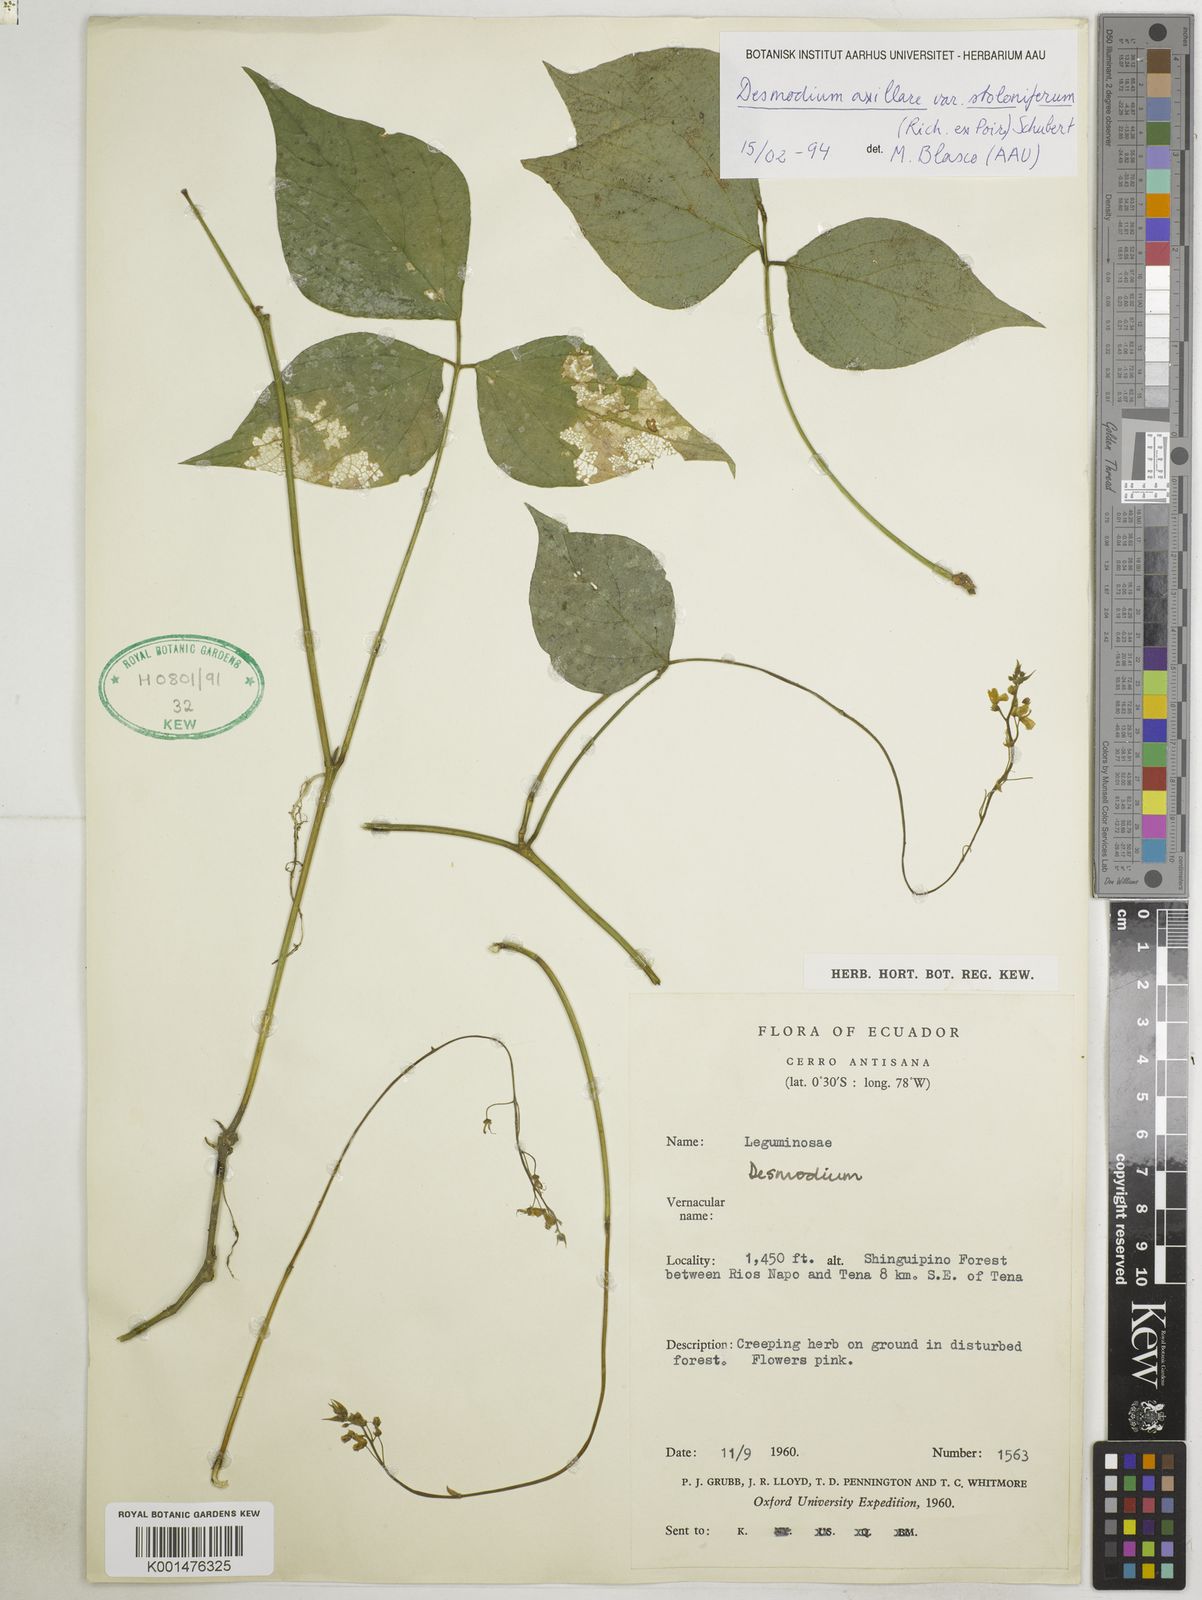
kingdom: Plantae
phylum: Tracheophyta
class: Magnoliopsida
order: Fabales
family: Fabaceae
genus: Desmodium
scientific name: Desmodium axillare
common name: Wire with
